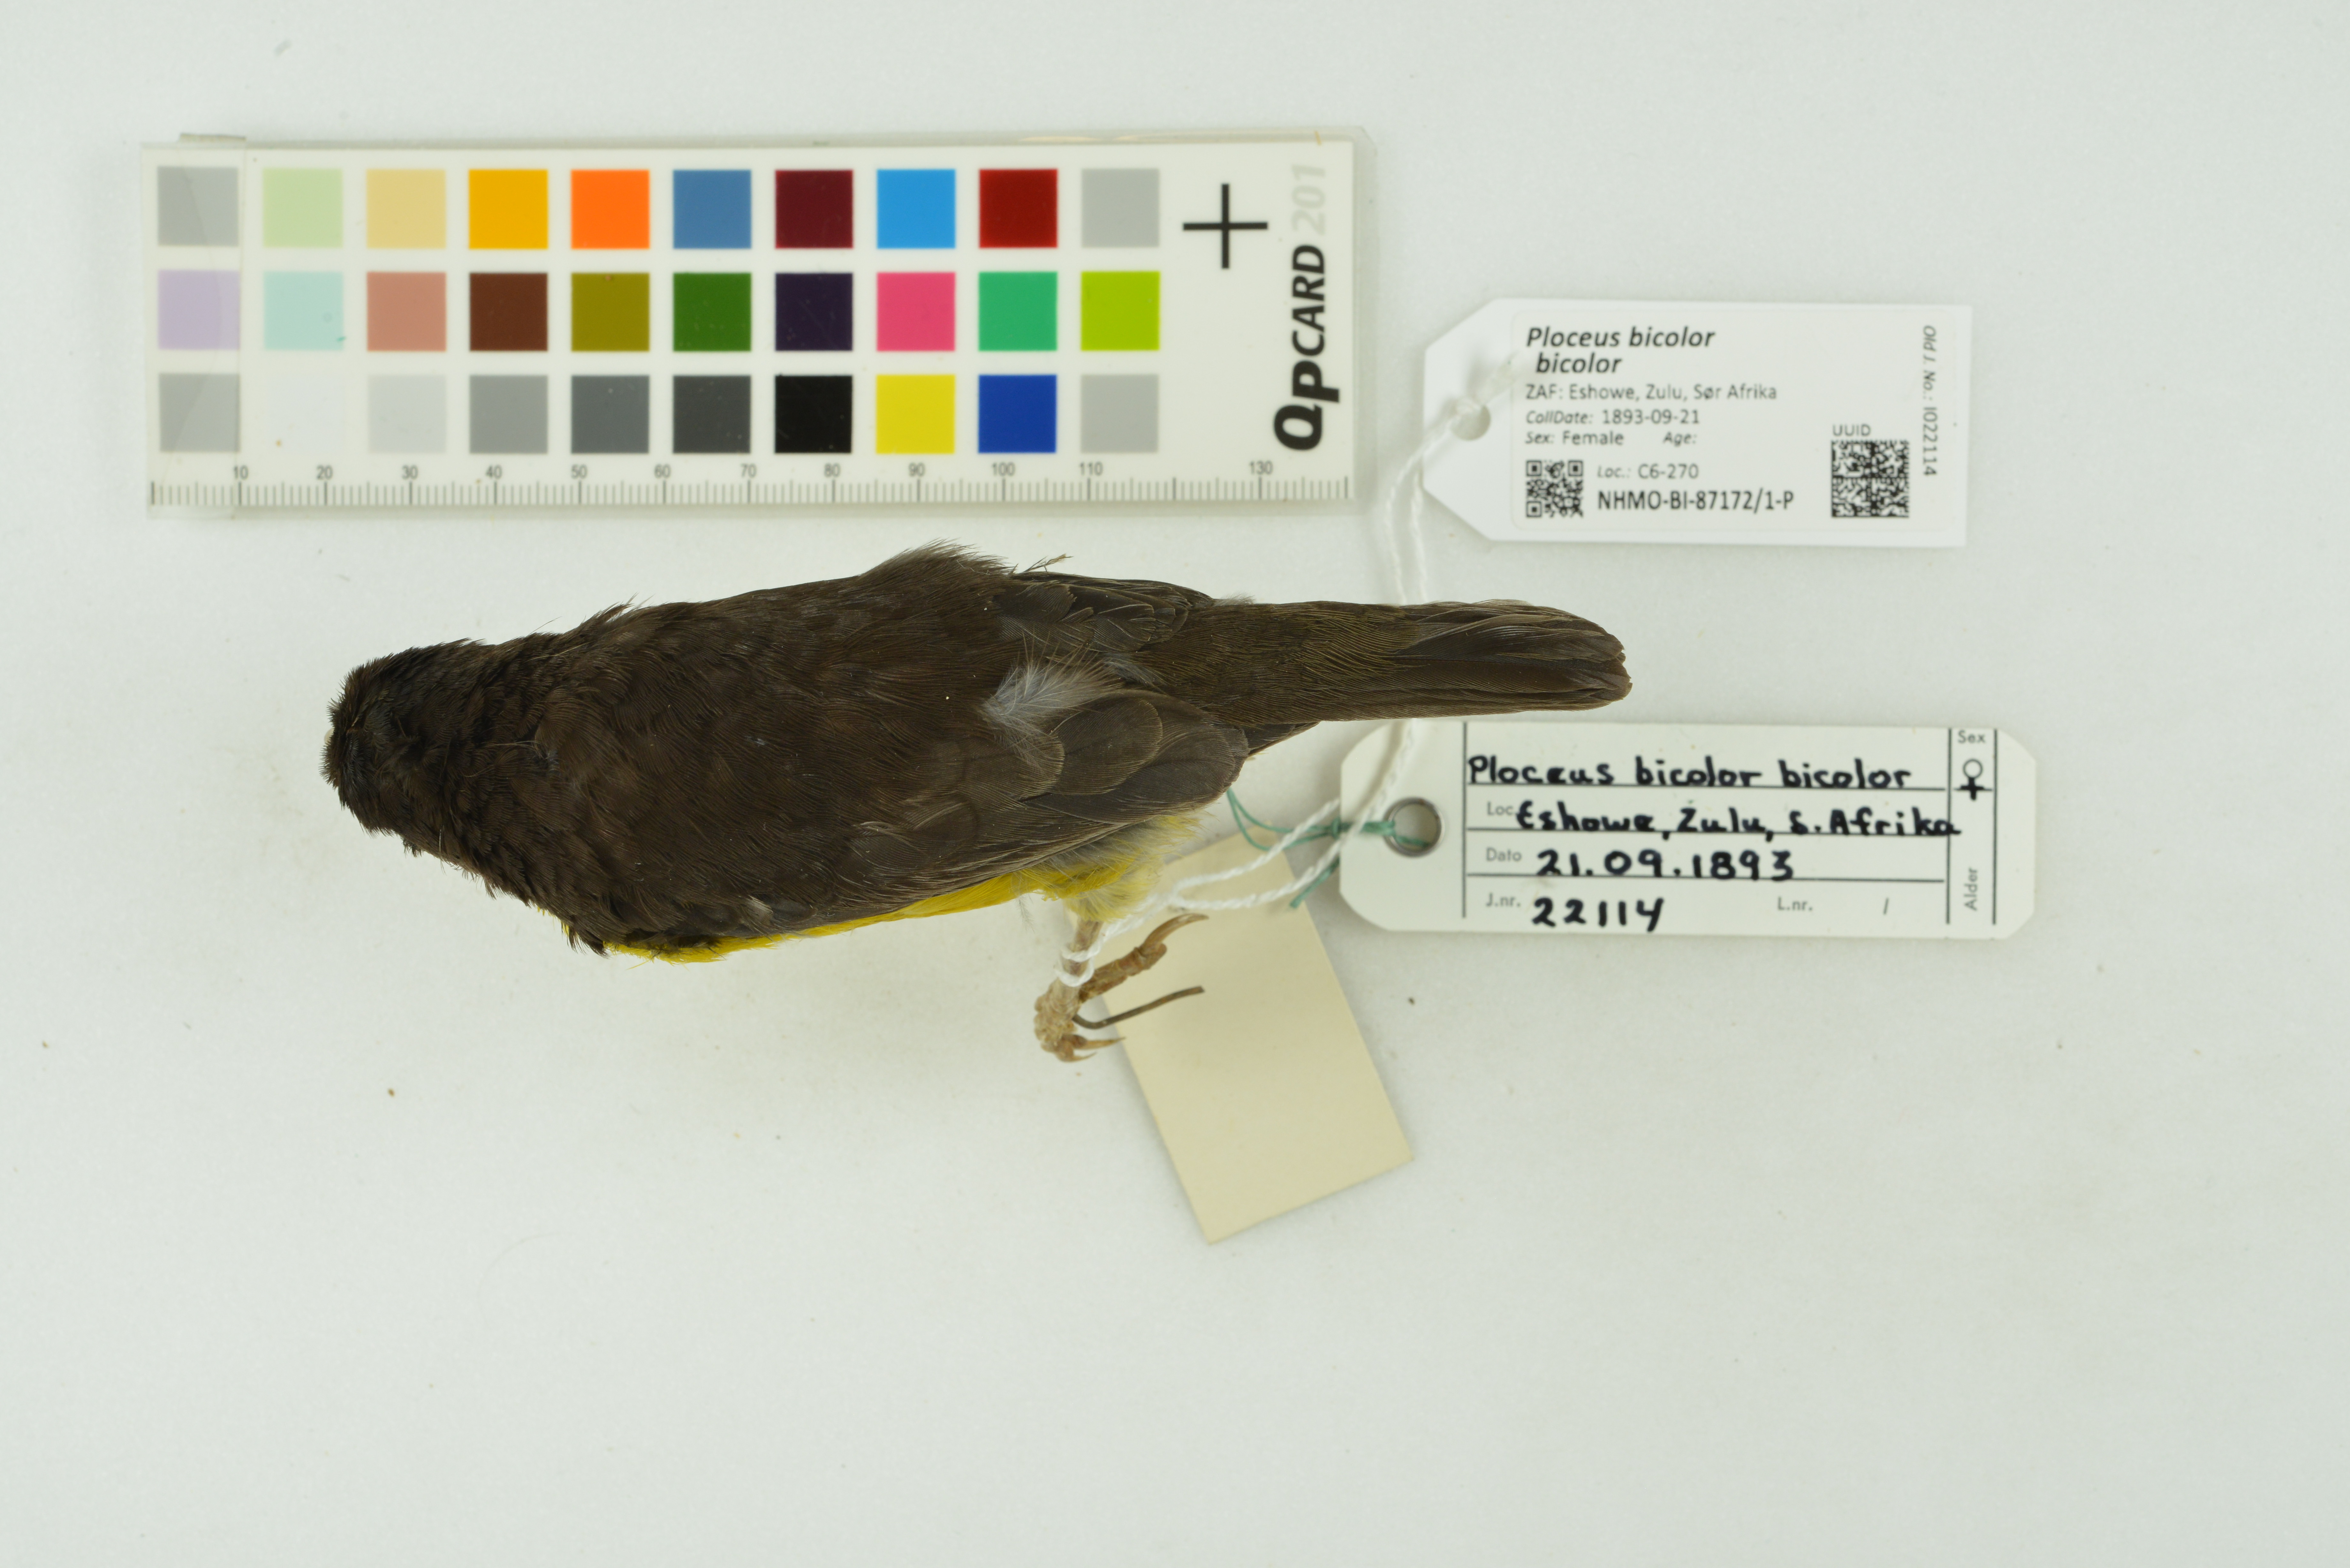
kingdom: Animalia
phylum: Chordata
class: Aves
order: Passeriformes
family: Ploceidae
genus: Ploceus
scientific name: Ploceus bicolor
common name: Dark-backed weaver
